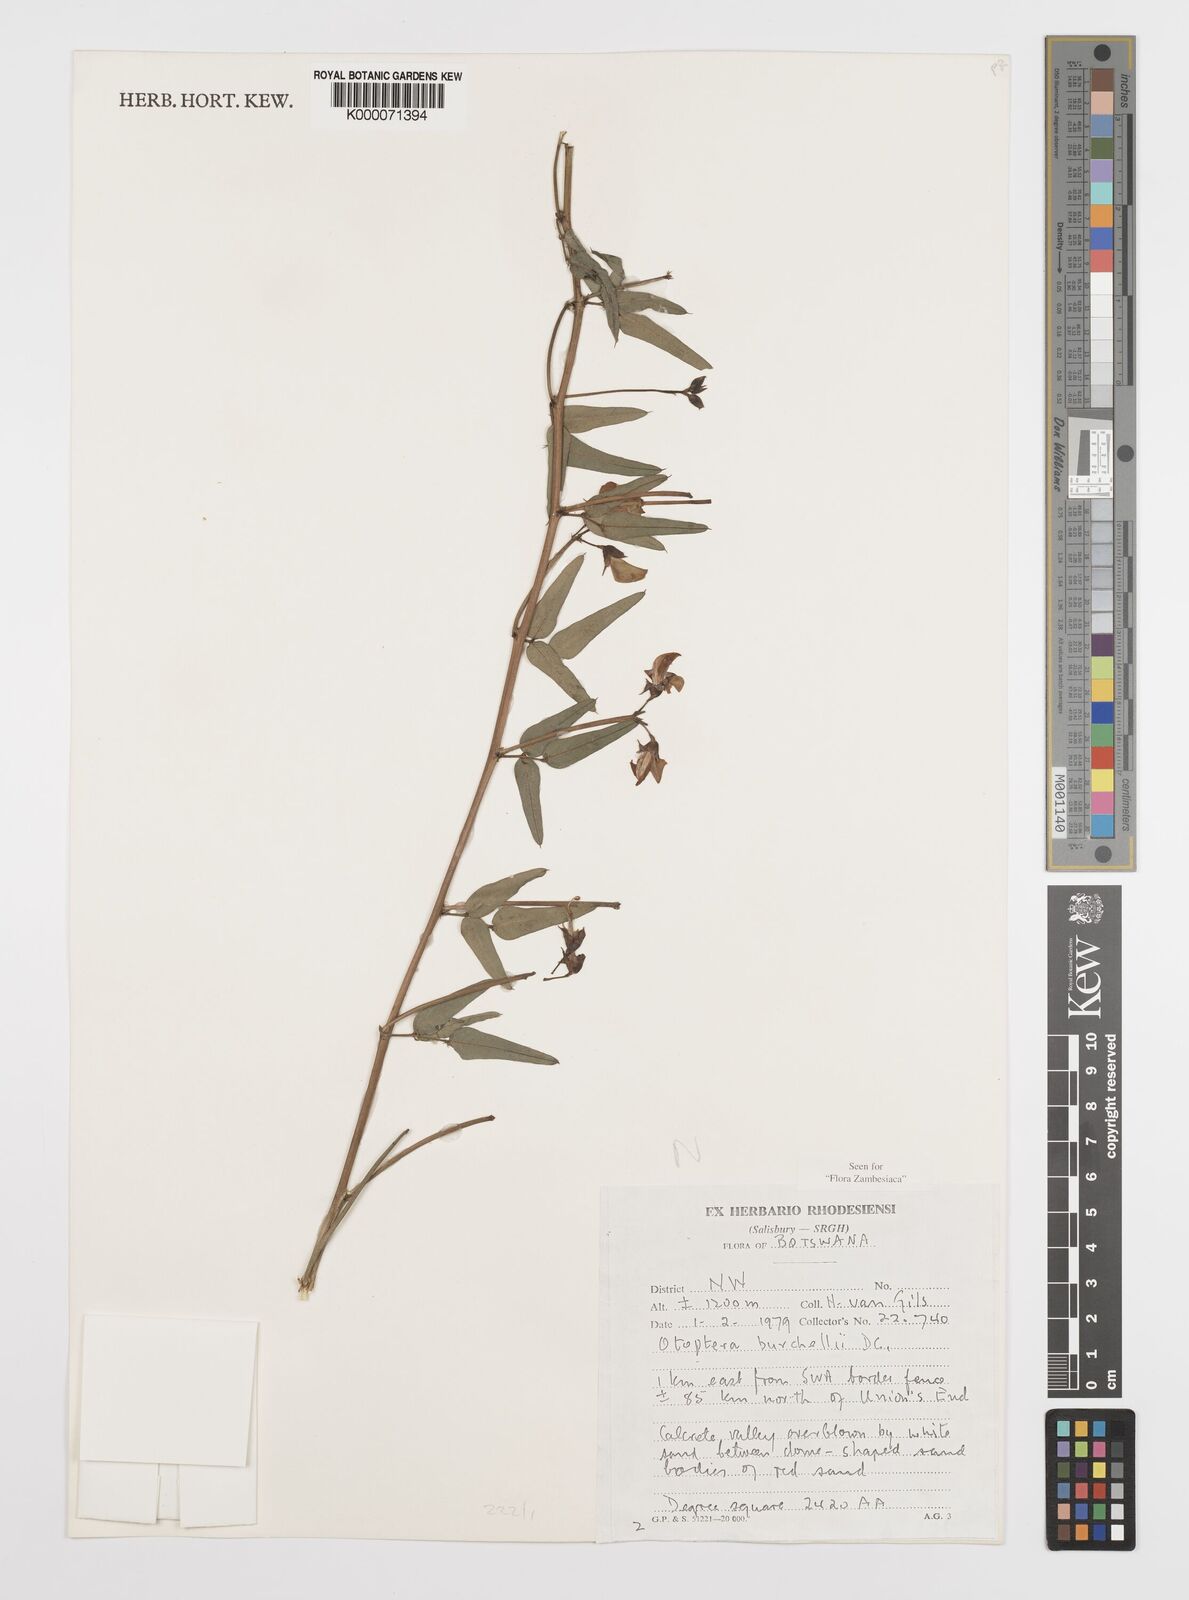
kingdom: Plantae
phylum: Tracheophyta
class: Magnoliopsida
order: Fabales
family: Fabaceae
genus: Otoptera
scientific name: Otoptera burchellii
